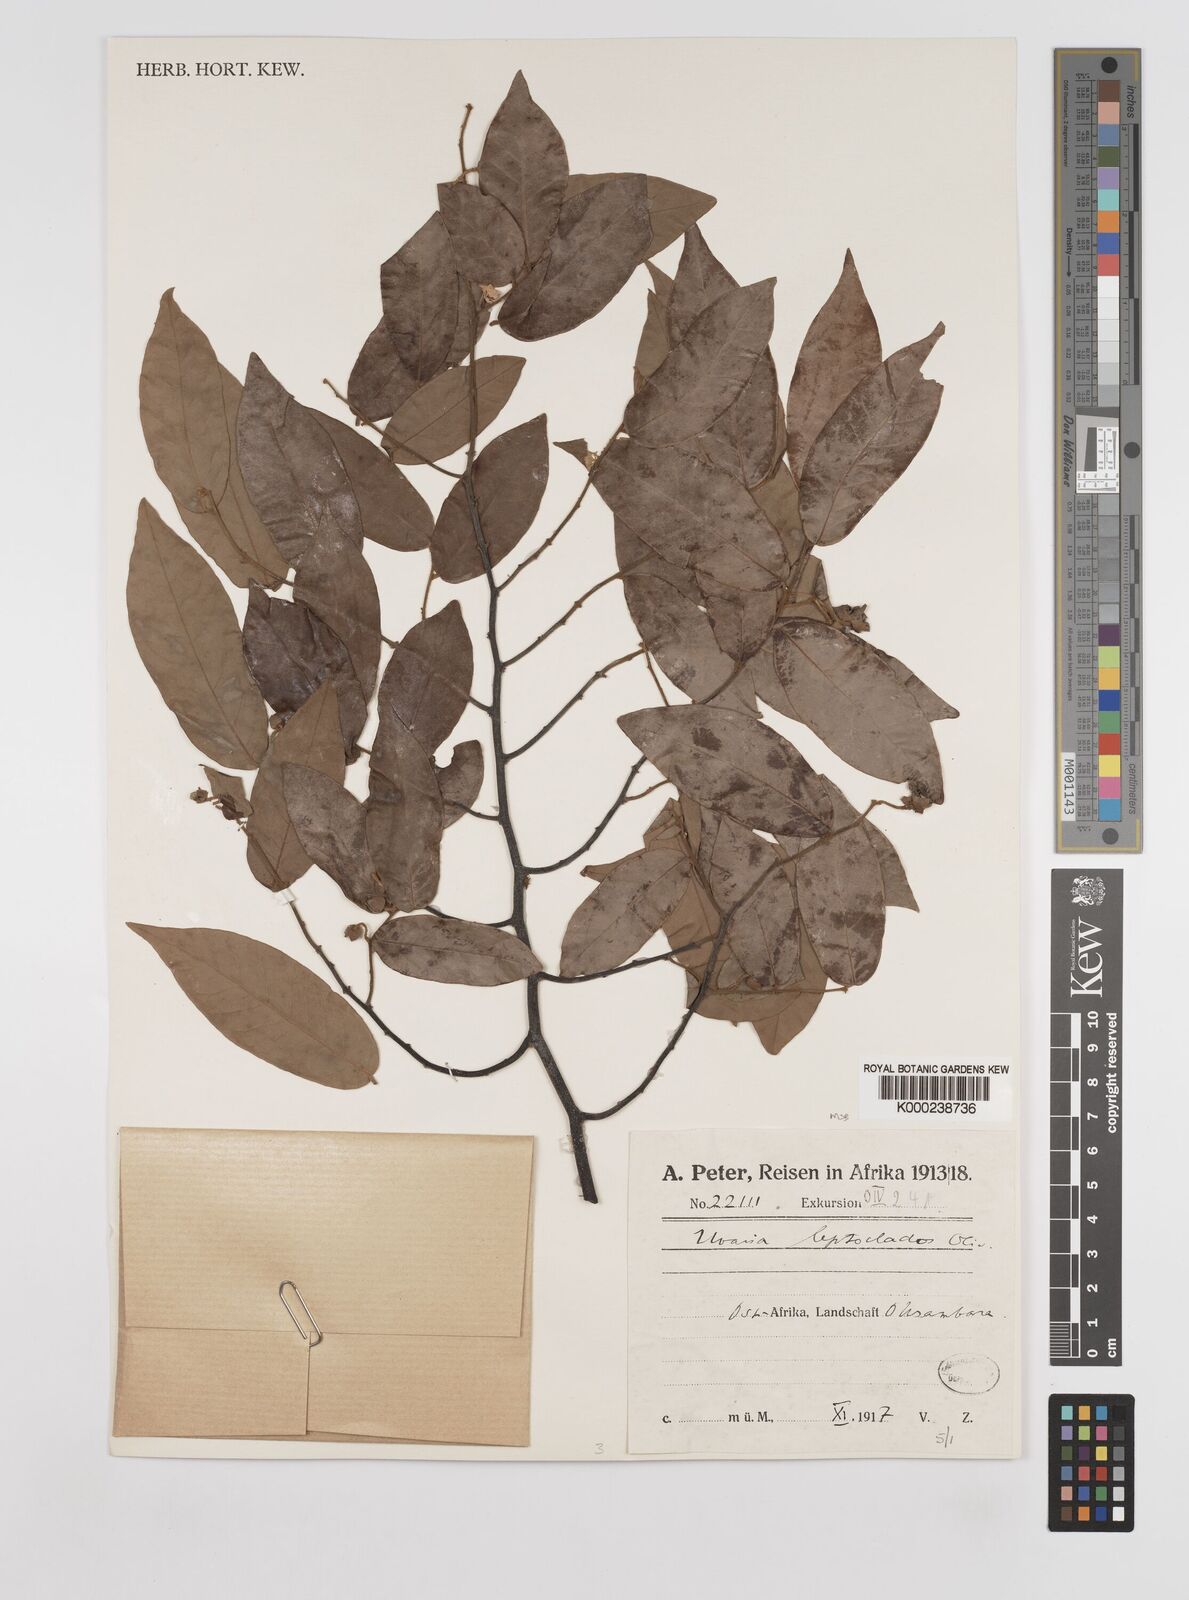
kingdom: Plantae
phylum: Tracheophyta
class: Magnoliopsida
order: Magnoliales
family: Annonaceae
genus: Uvaria
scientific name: Uvaria leptocladon
